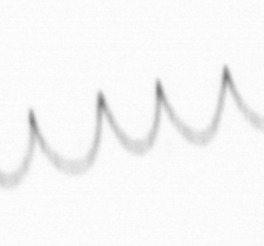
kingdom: Chromista
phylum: Ochrophyta
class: Bacillariophyceae
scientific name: Bacillariophyceae
